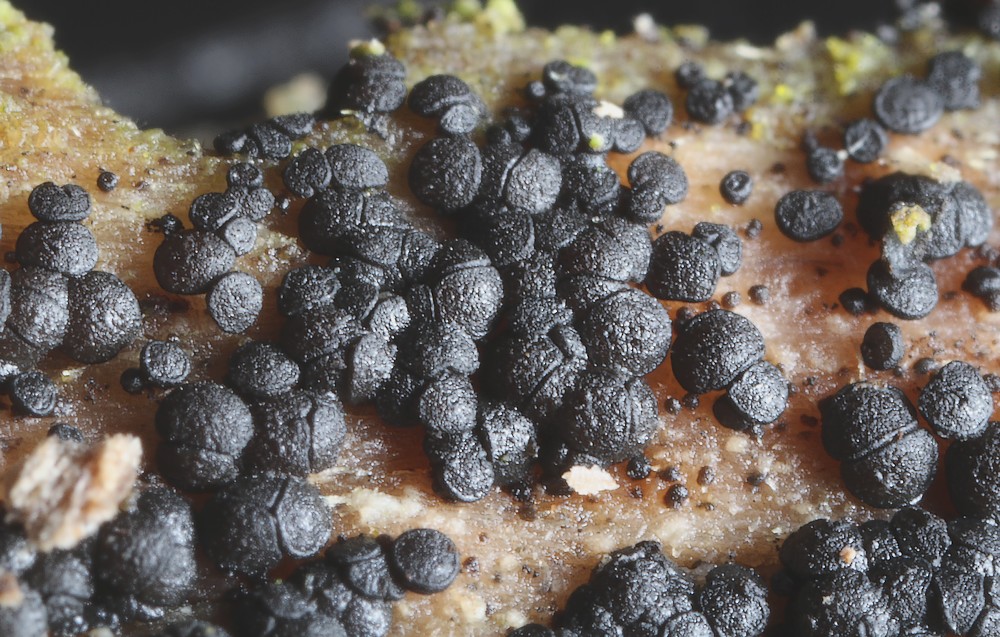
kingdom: Fungi
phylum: Ascomycota
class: Leotiomycetes
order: Helotiales
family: Helotiaceae
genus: Durella
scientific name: Durella macrospora
